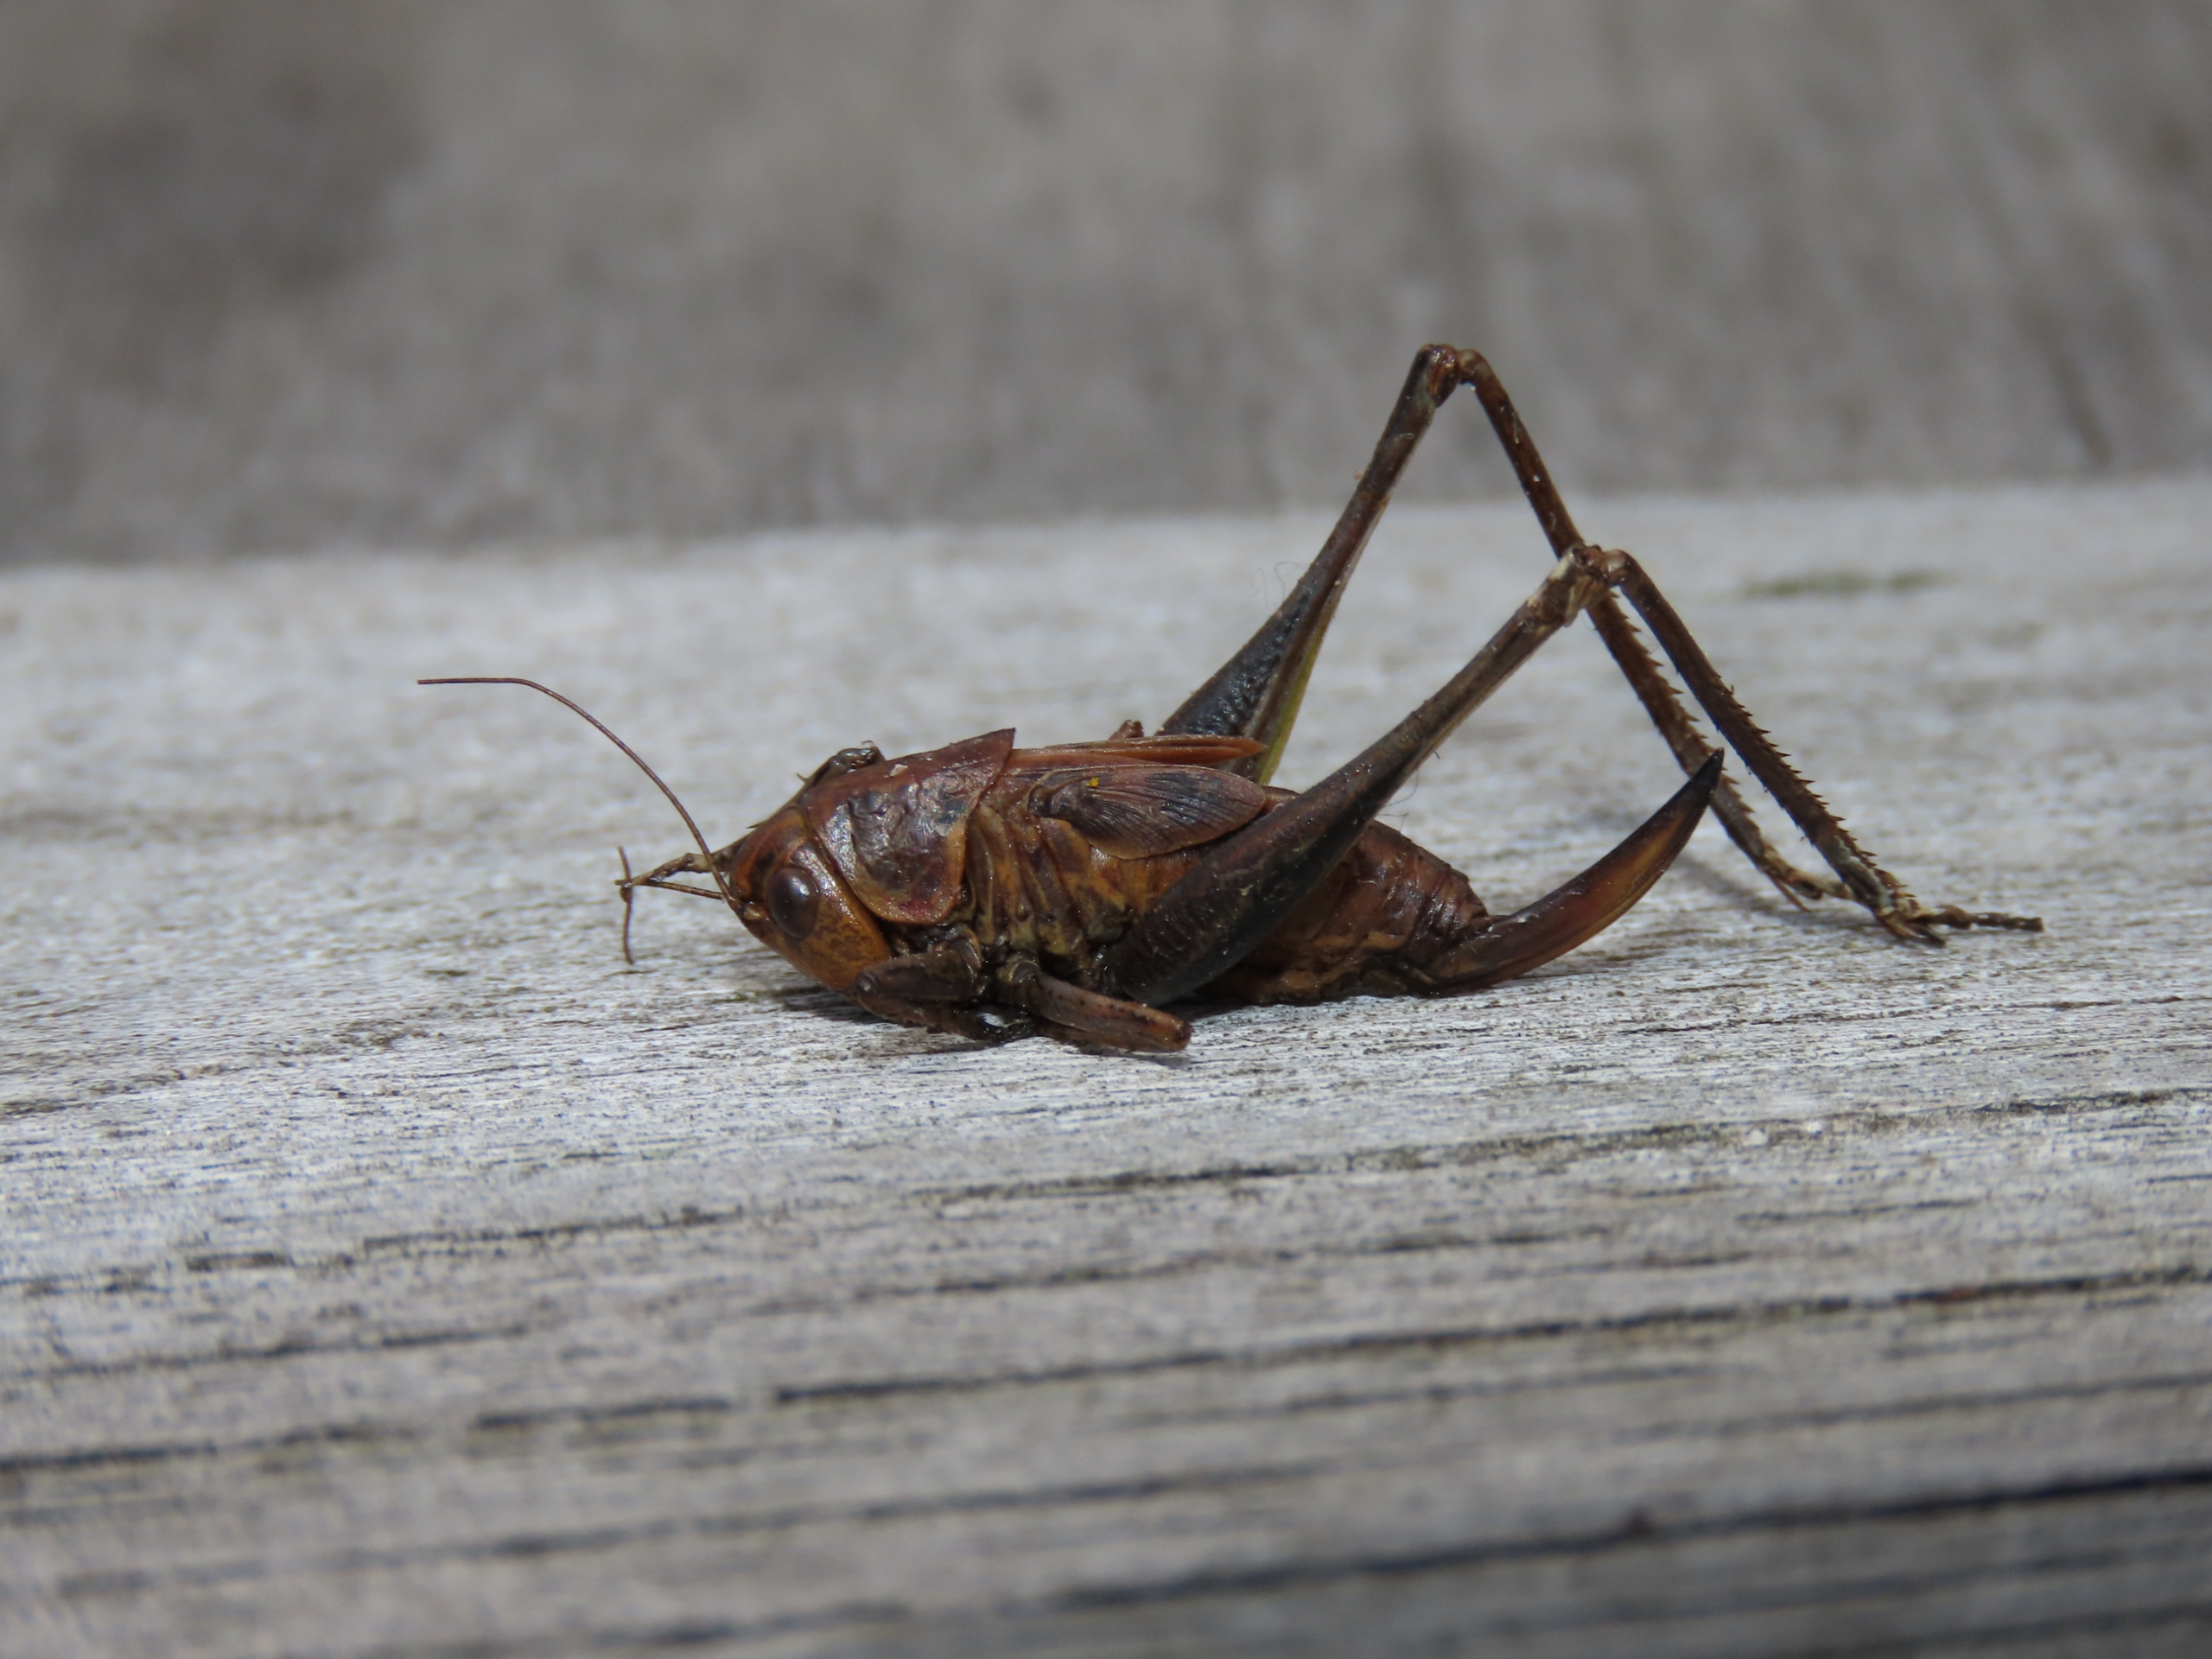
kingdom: Animalia
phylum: Arthropoda
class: Insecta
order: Orthoptera
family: Tettigoniidae
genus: Platycleis
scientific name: Platycleis albopunctata
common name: Sandgræshoppe
